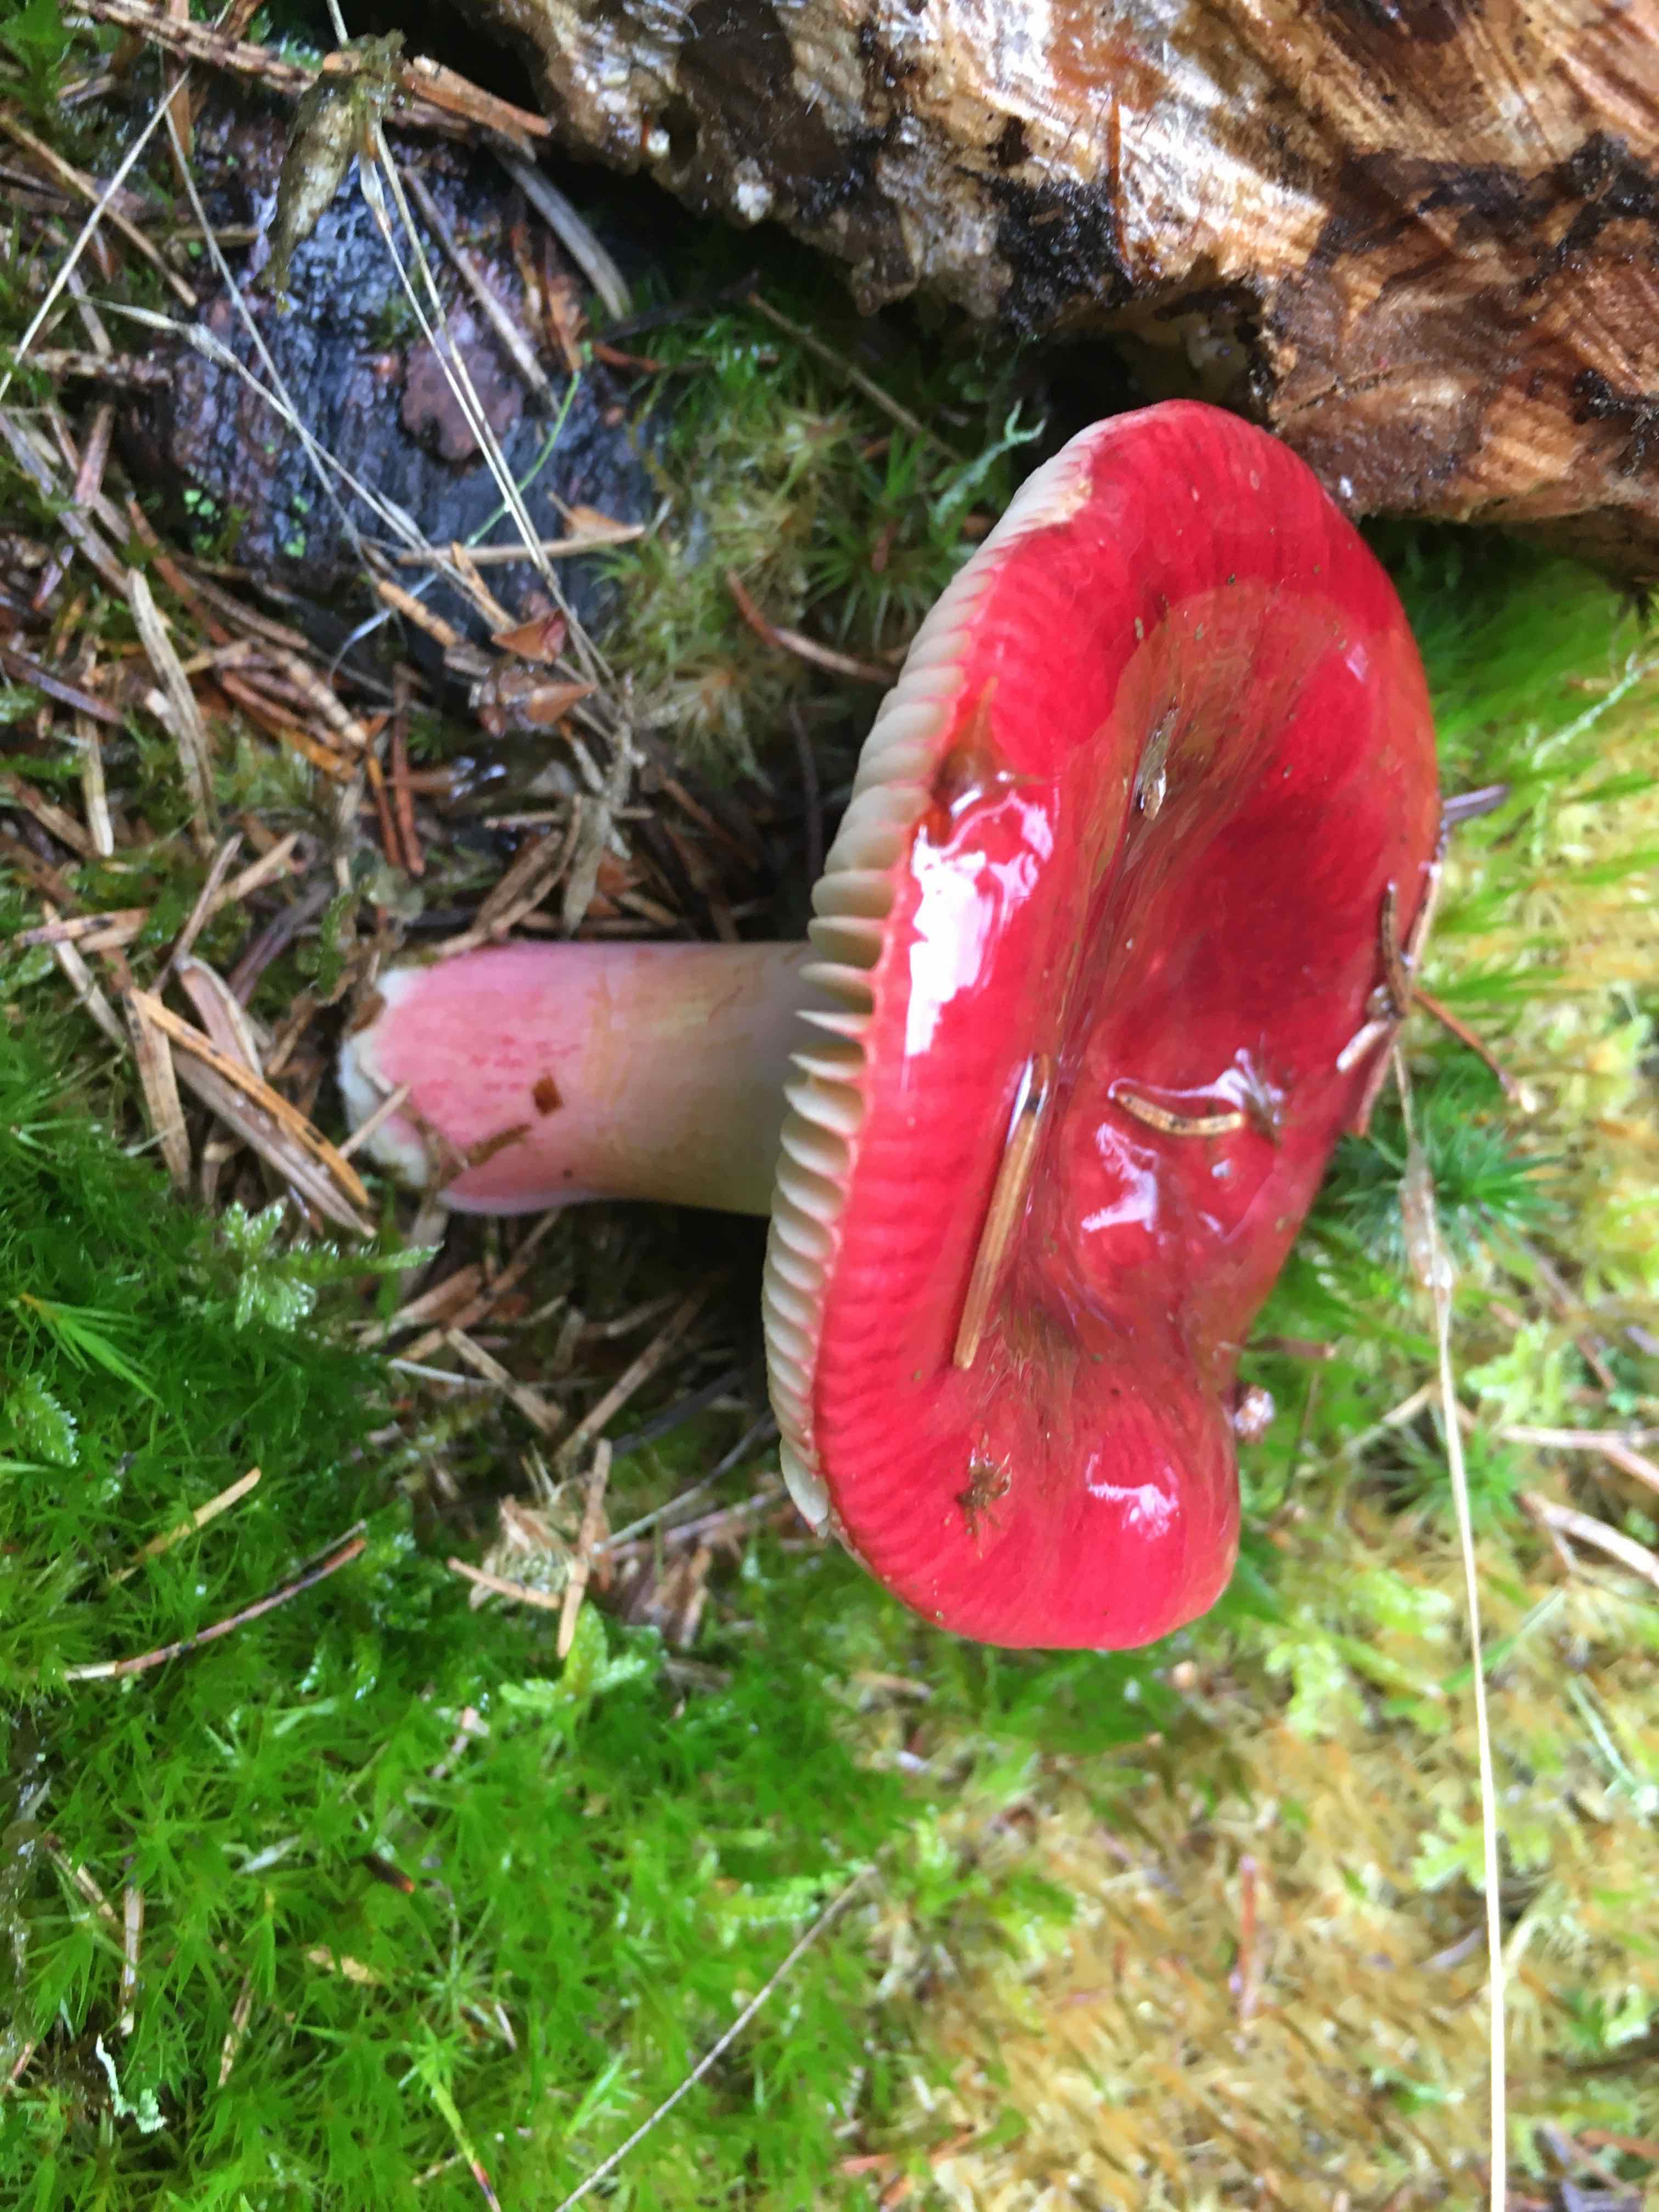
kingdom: Fungi
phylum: Basidiomycota
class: Agaricomycetes
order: Russulales
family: Russulaceae
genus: Russula
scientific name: Russula xerampelina
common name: hummer-skørhat
